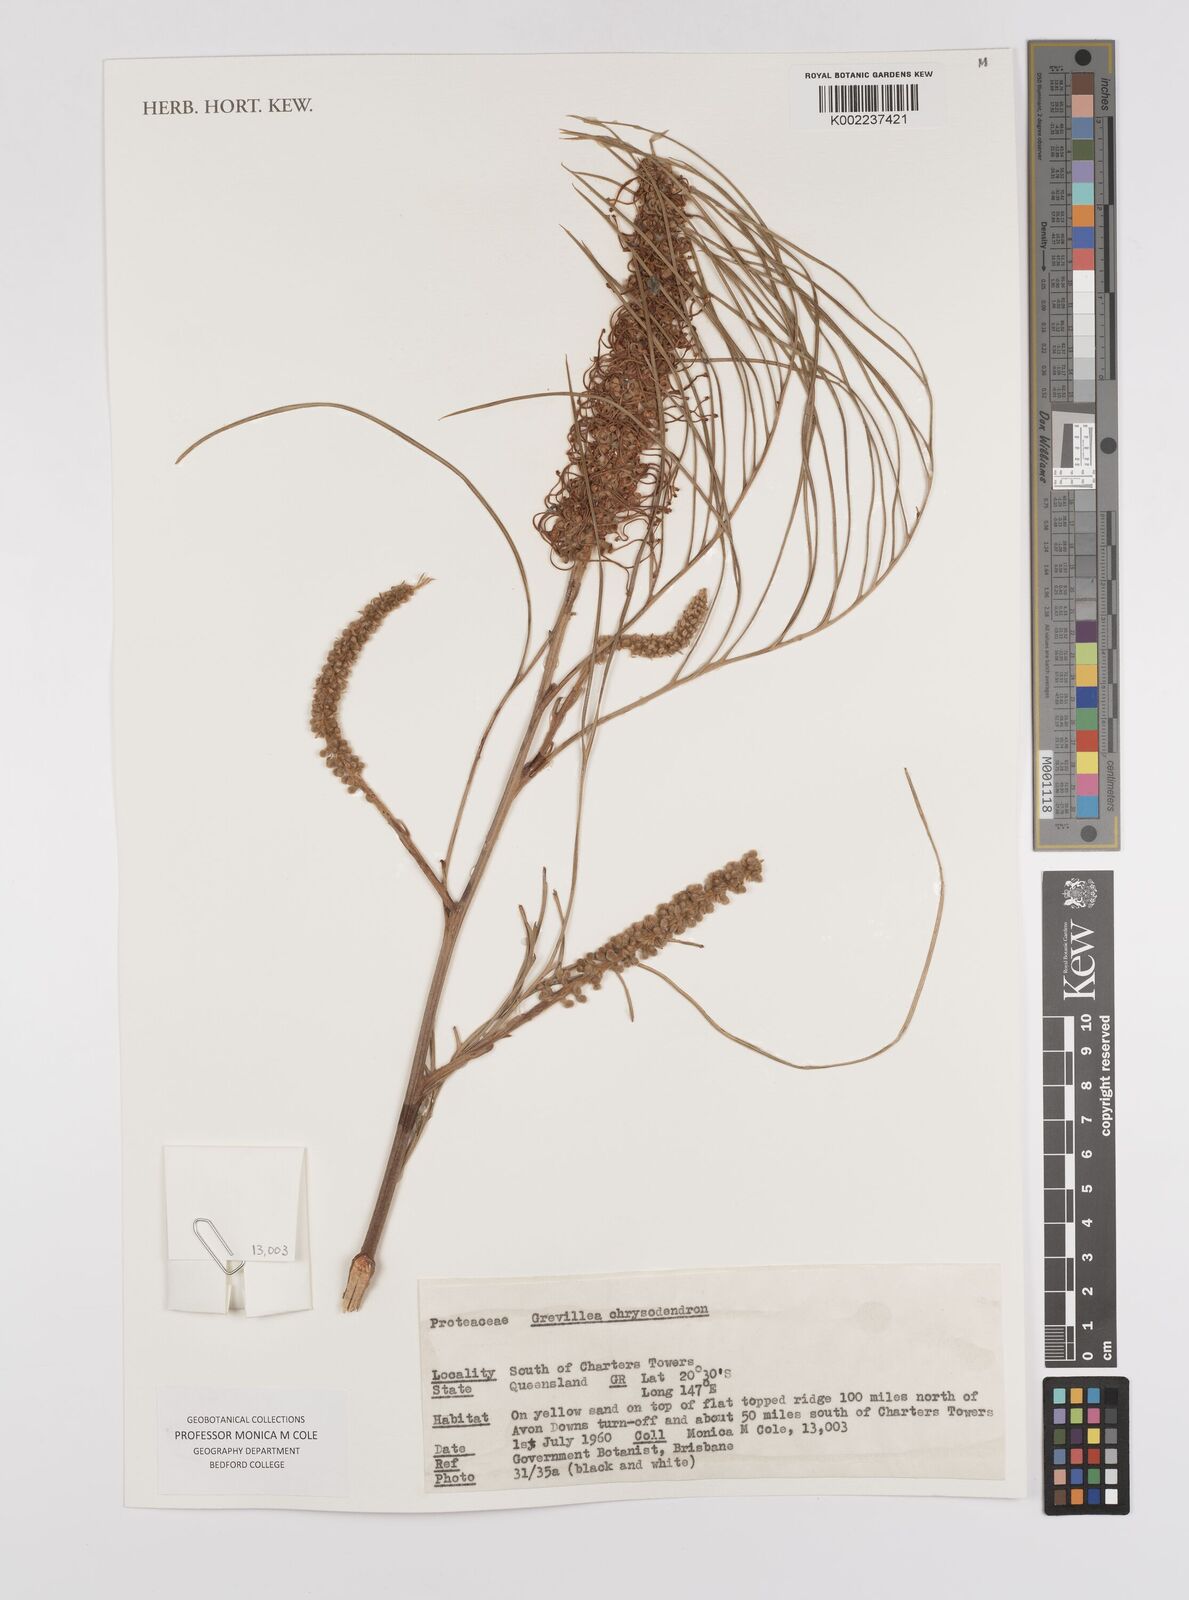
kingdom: Plantae
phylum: Tracheophyta
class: Magnoliopsida
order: Proteales
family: Proteaceae
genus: Grevillea
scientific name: Grevillea pteridifolia
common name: Golden grevillea
